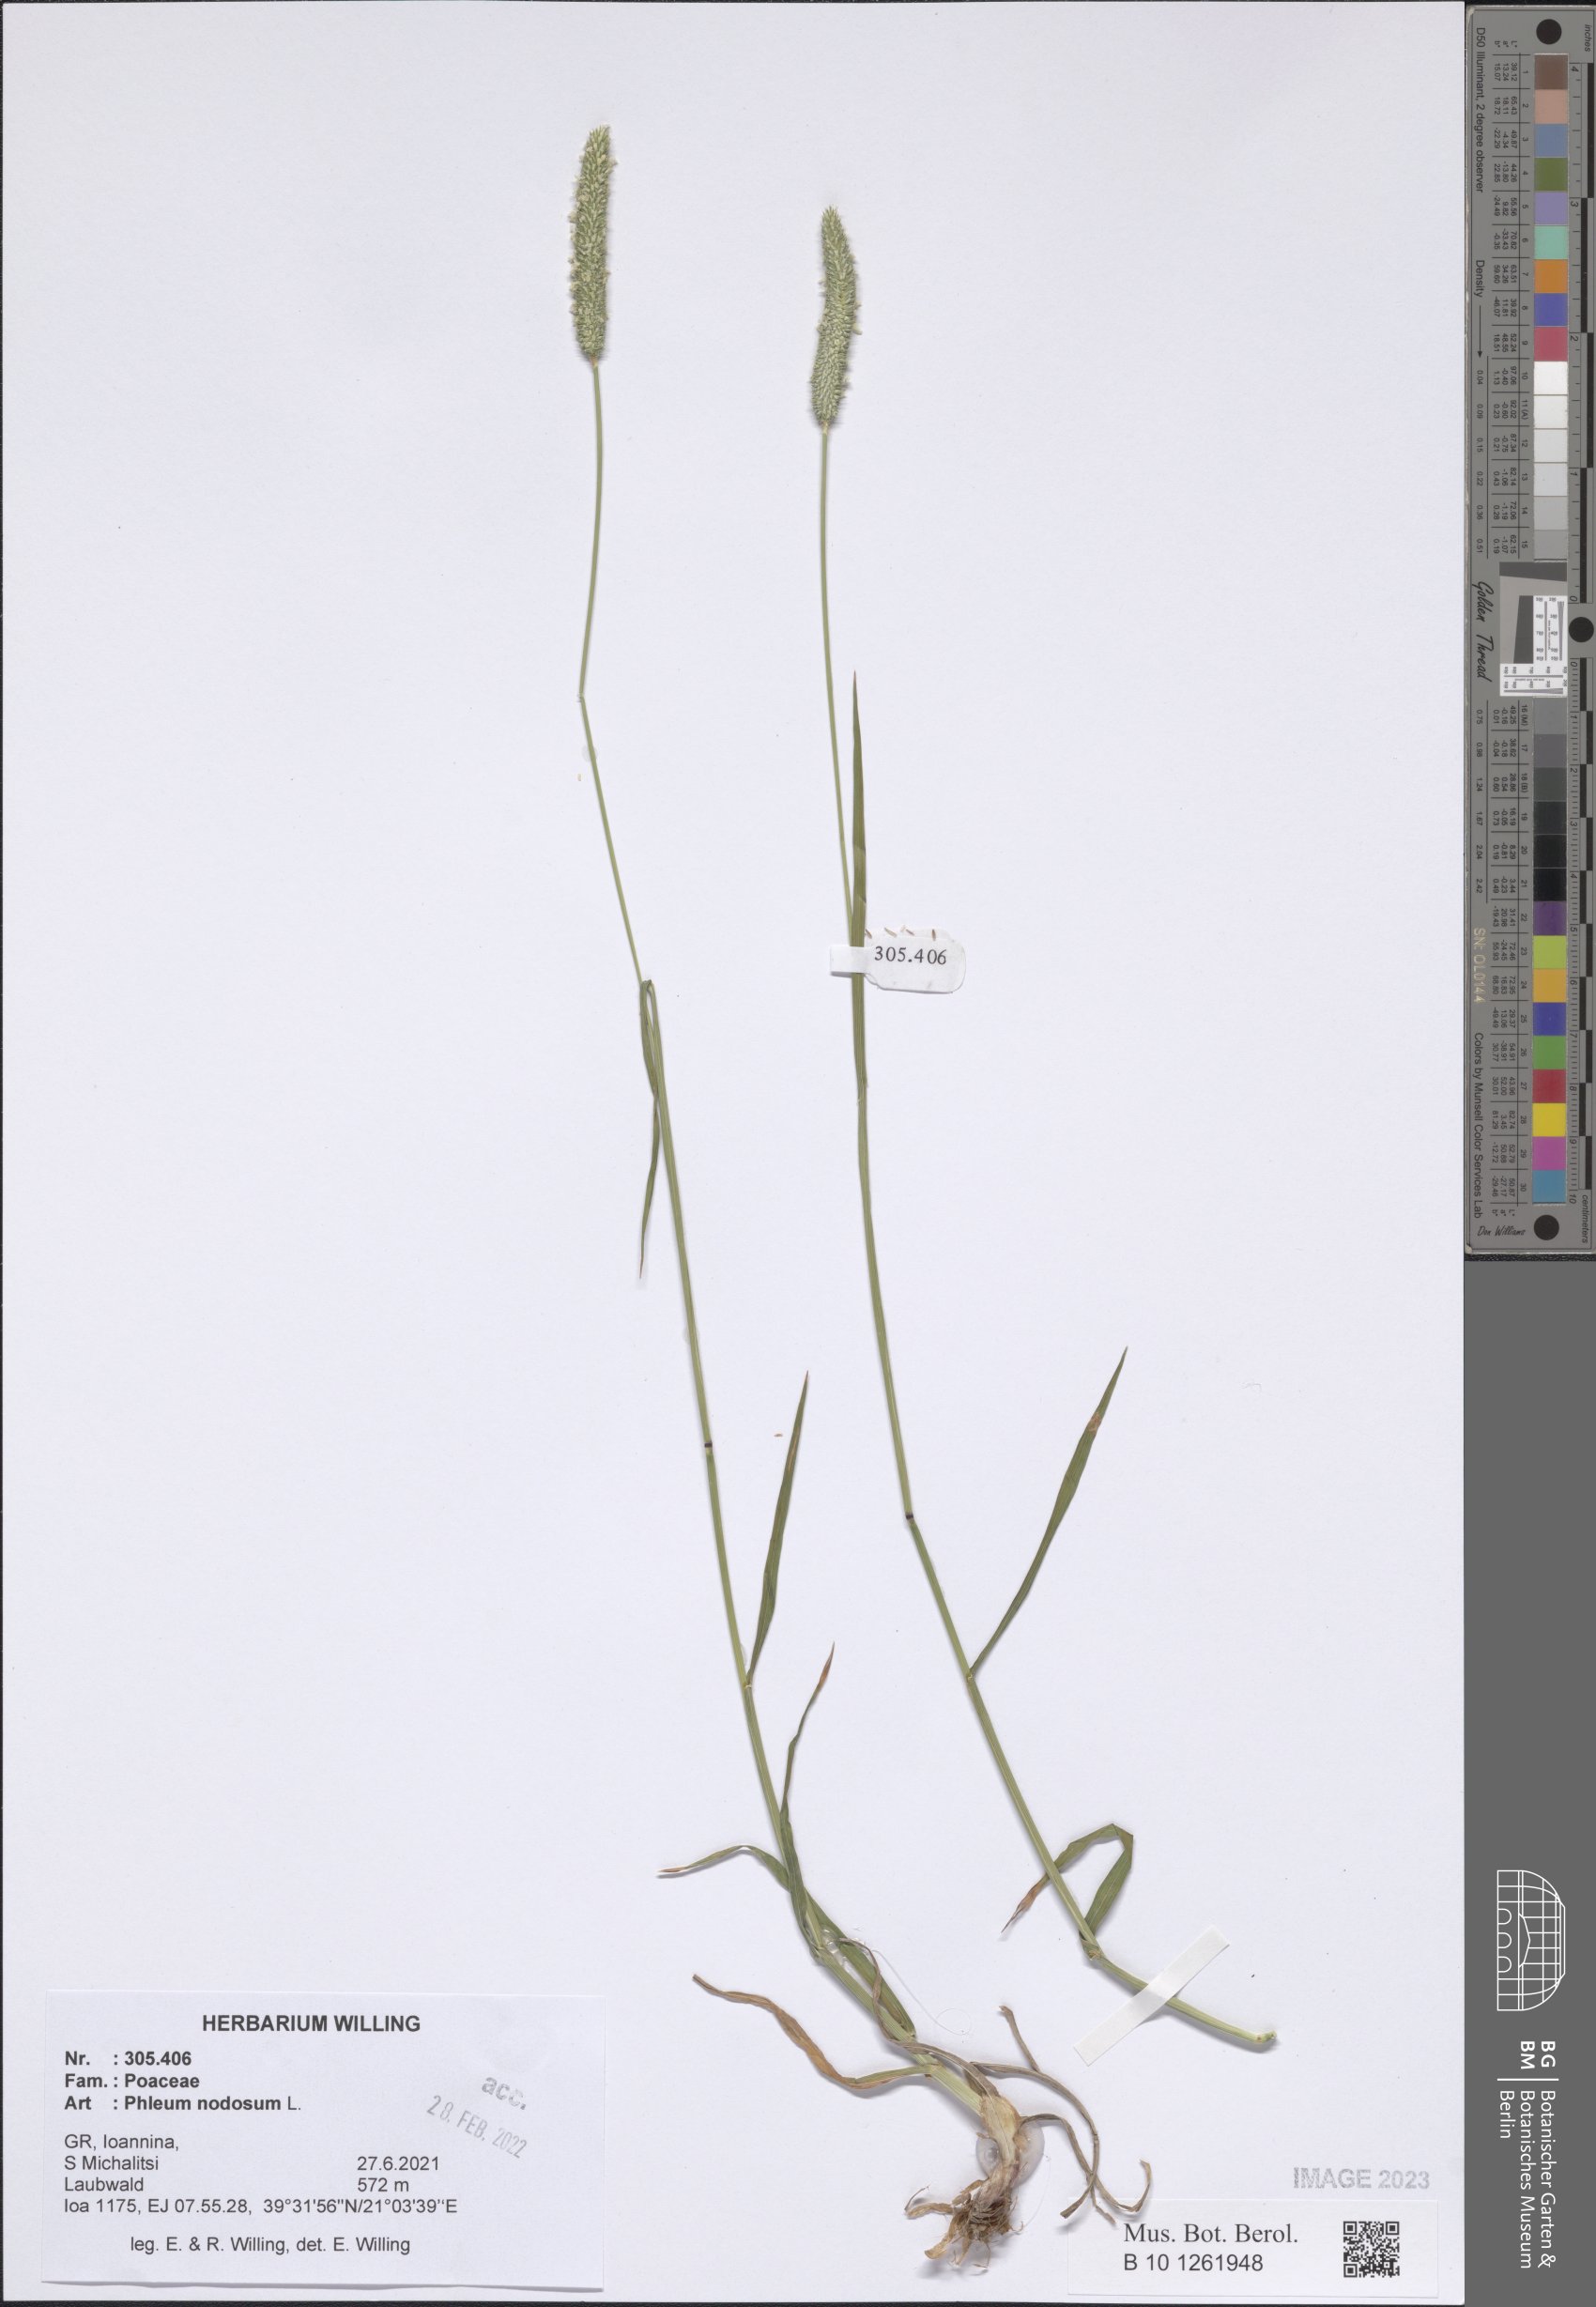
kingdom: Plantae
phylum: Tracheophyta
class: Liliopsida
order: Poales
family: Poaceae
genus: Phleum
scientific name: Phleum pratense
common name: Timothy grass
